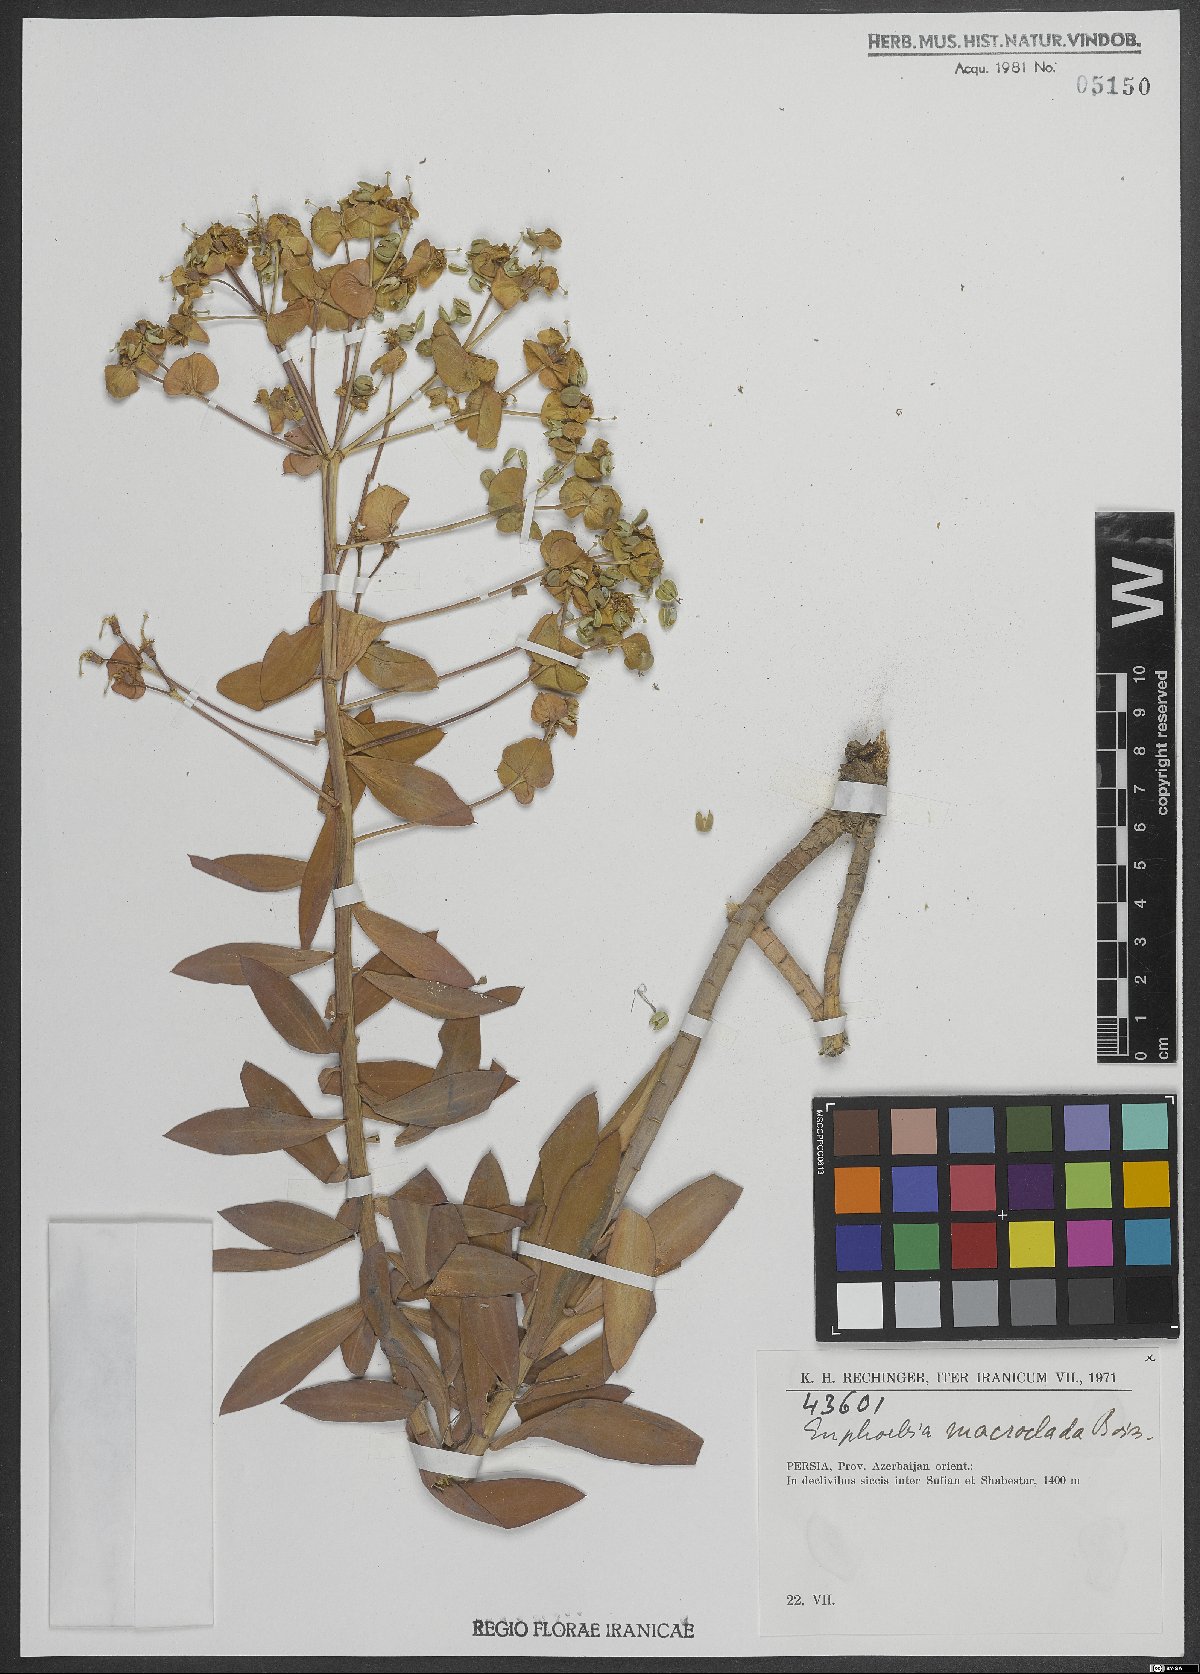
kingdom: Plantae
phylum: Tracheophyta
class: Magnoliopsida
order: Malpighiales
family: Euphorbiaceae
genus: Euphorbia
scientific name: Euphorbia macroclada
